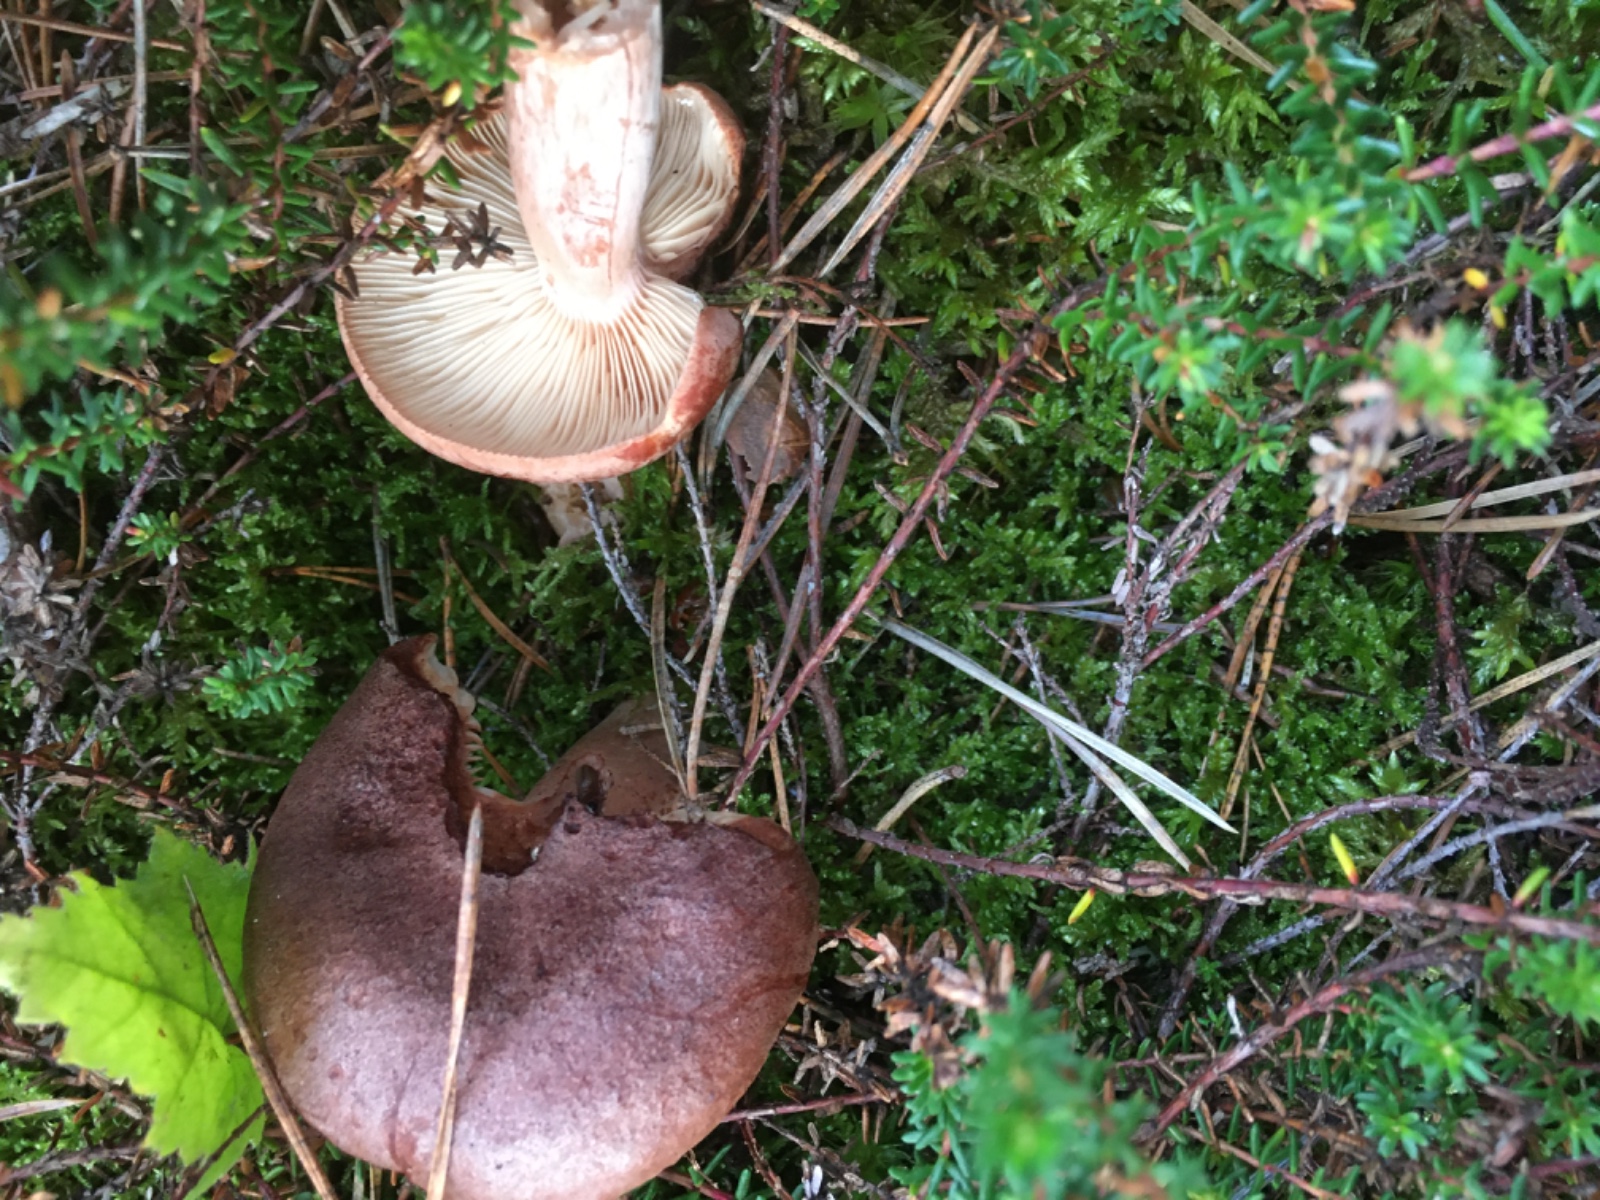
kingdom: Fungi
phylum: Basidiomycota
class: Agaricomycetes
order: Russulales
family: Russulaceae
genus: Lactarius
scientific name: Lactarius rufus
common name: rødbrun mælkehat
